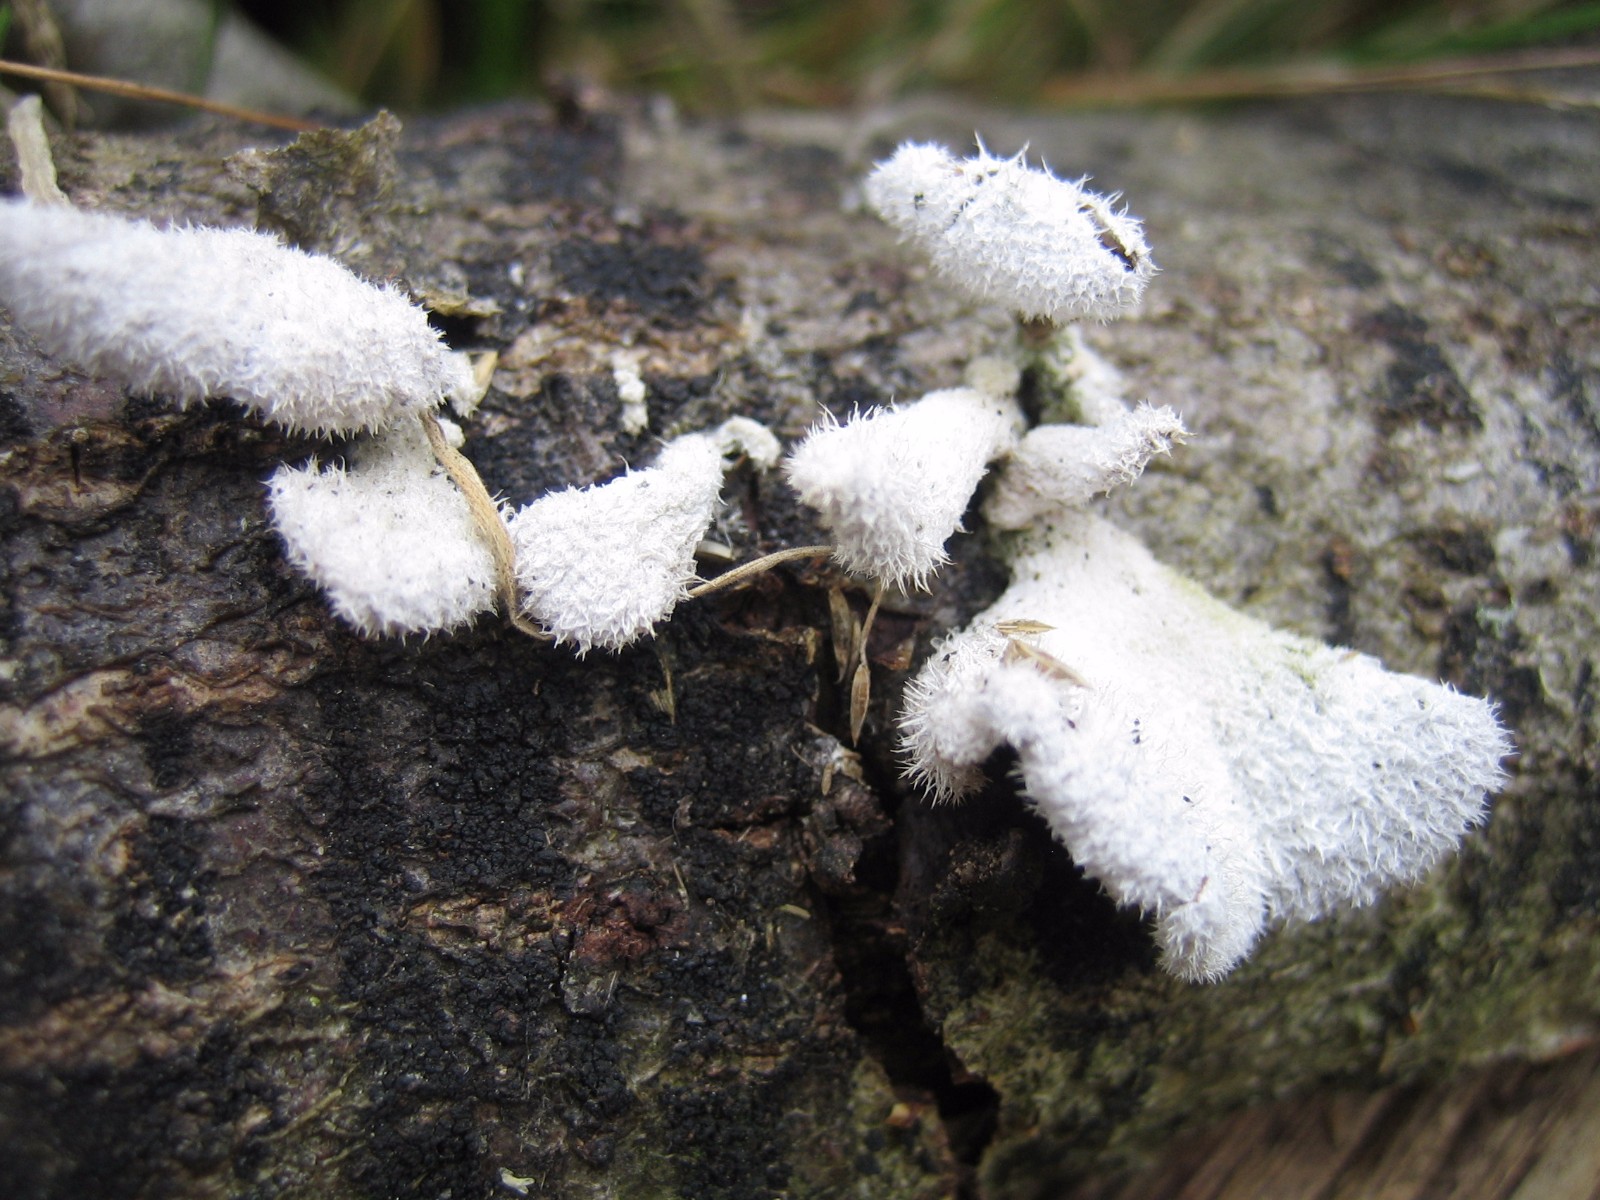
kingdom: Fungi
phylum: Basidiomycota
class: Agaricomycetes
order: Agaricales
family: Schizophyllaceae
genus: Schizophyllum
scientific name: Schizophyllum commune
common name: kløvblad
